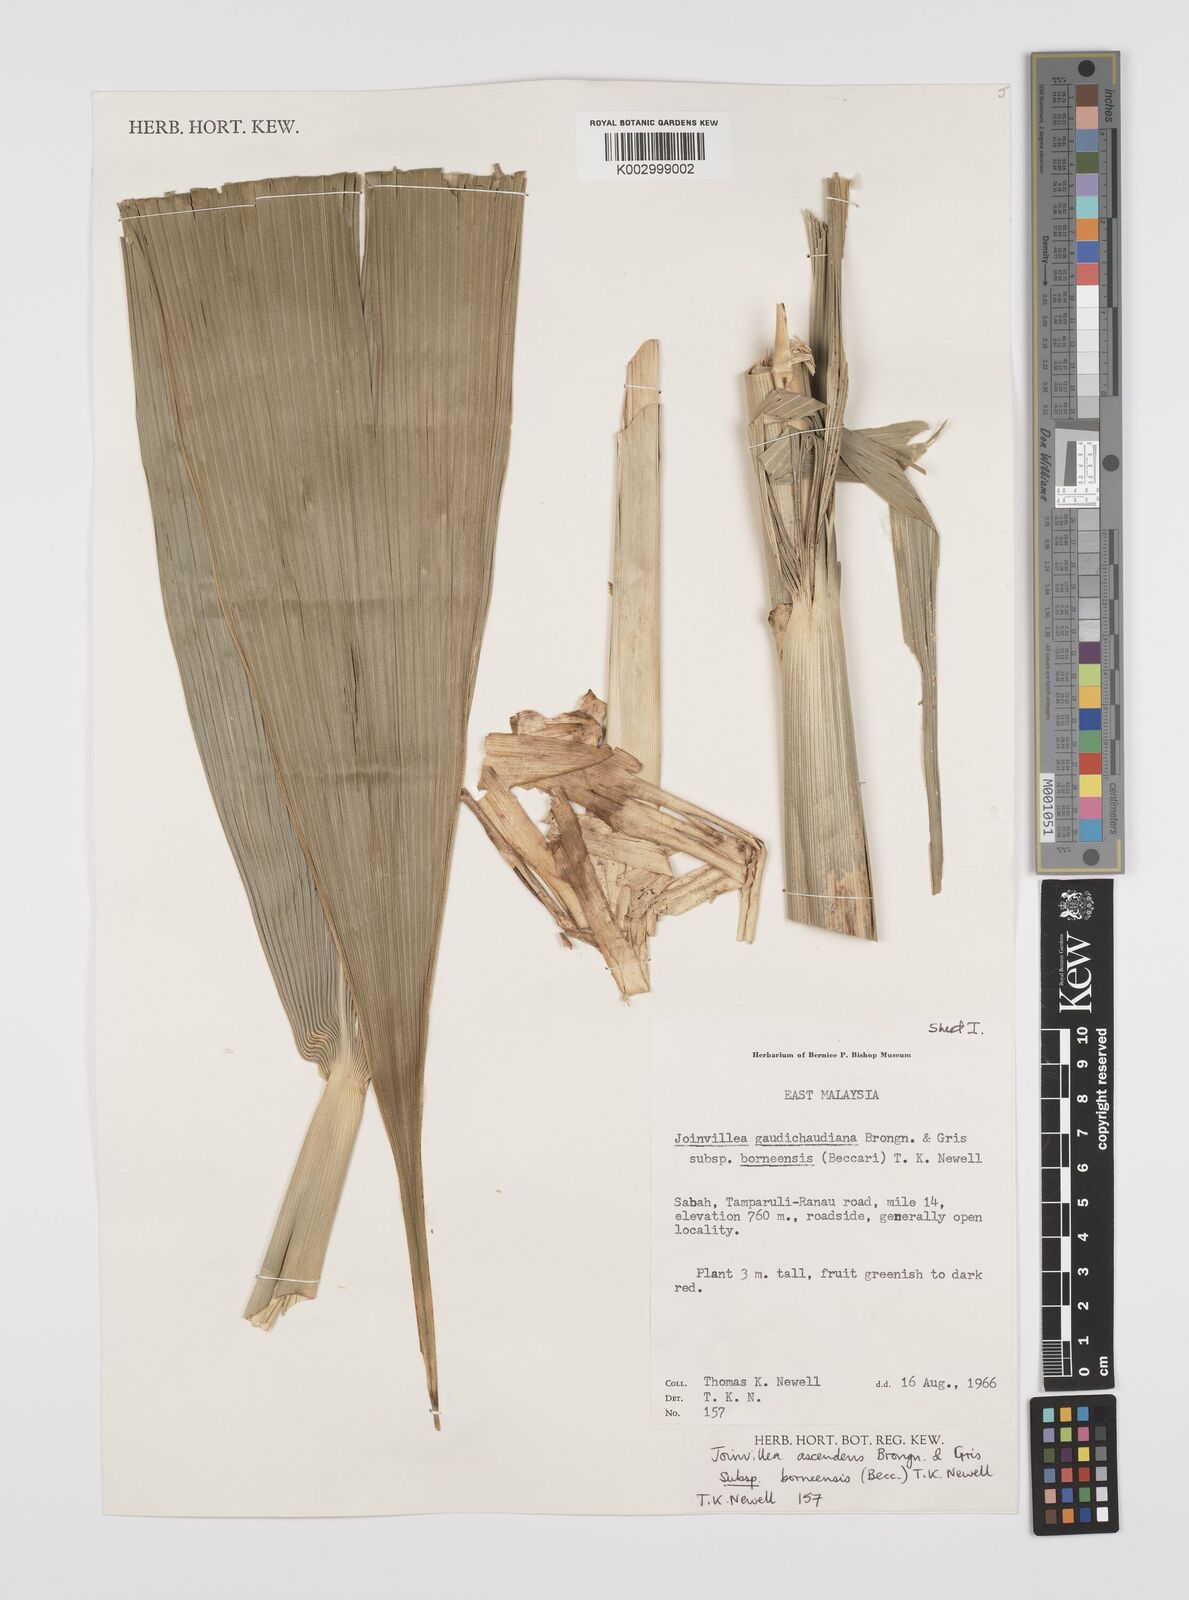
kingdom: Plantae
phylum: Tracheophyta
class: Liliopsida
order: Poales
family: Joinvilleaceae
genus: Joinvillea
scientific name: Joinvillea borneensis
